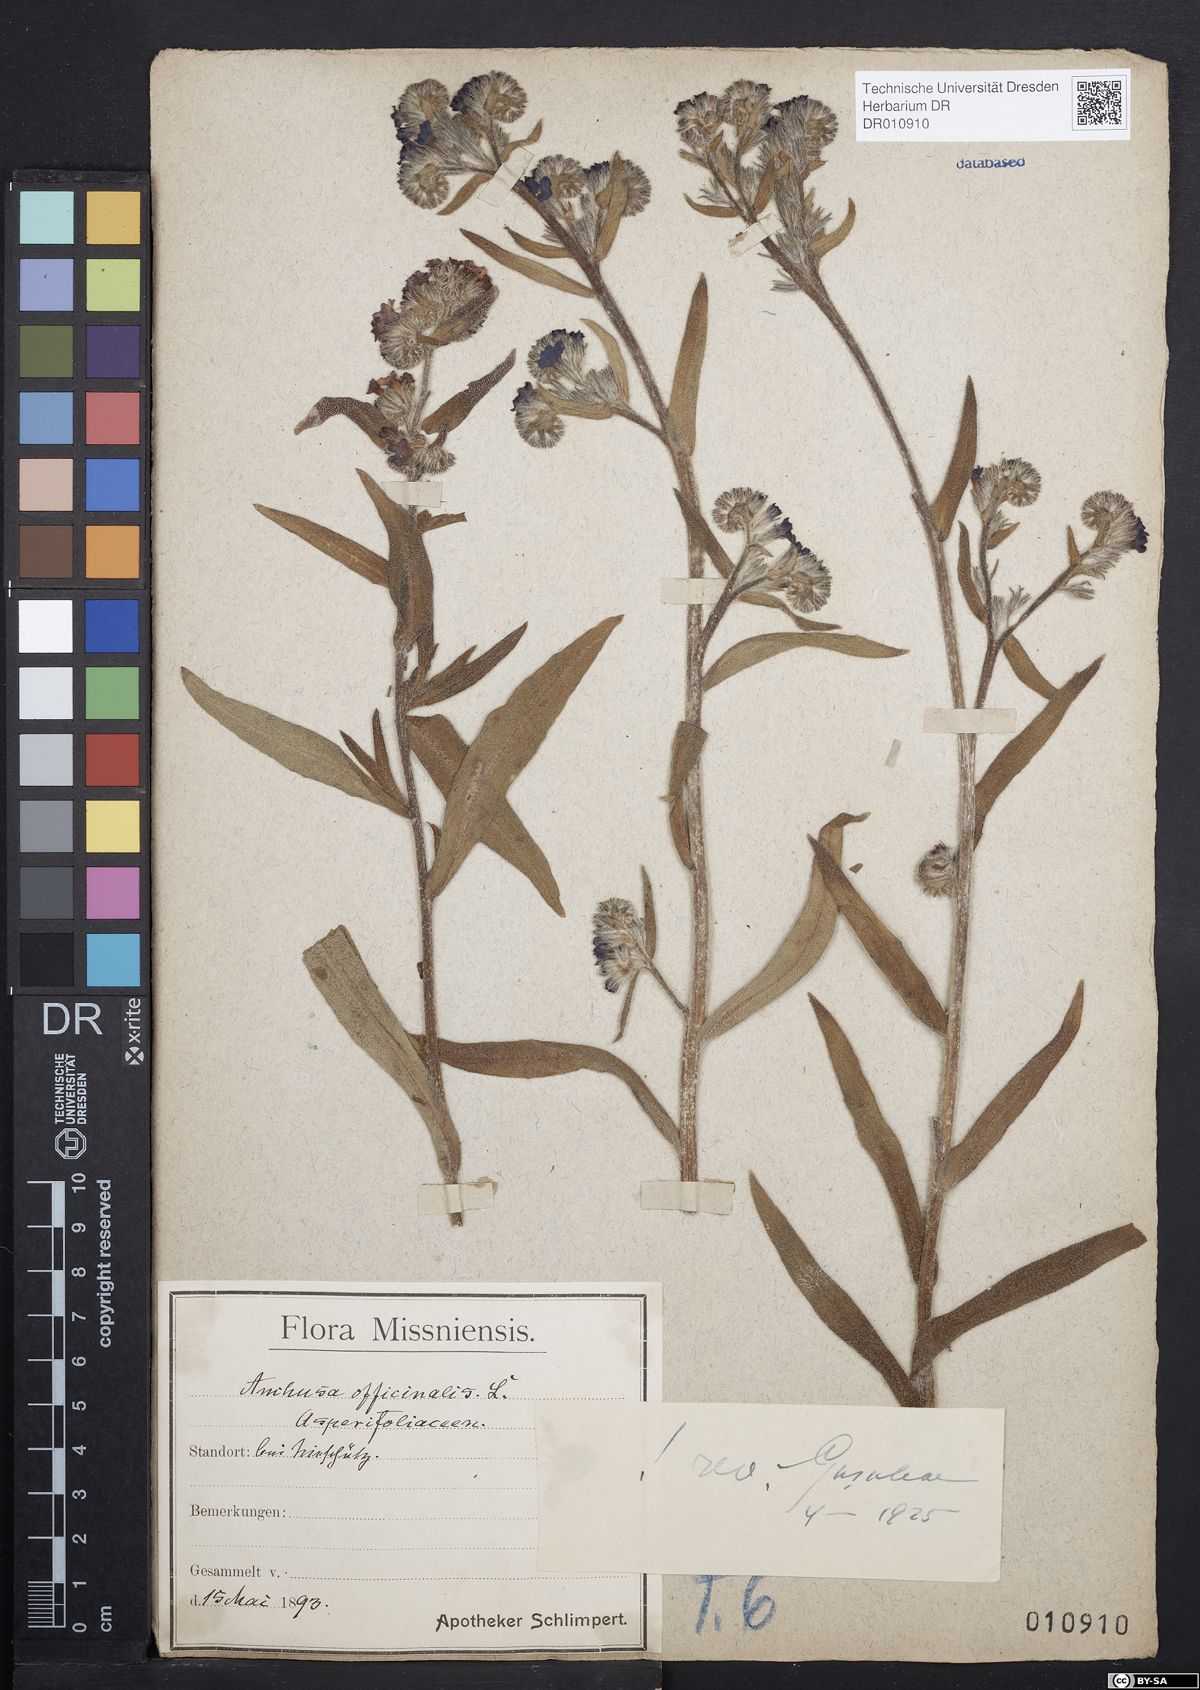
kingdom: Plantae
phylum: Tracheophyta
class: Magnoliopsida
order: Boraginales
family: Boraginaceae
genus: Anchusa
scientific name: Anchusa officinalis
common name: Alkanet
